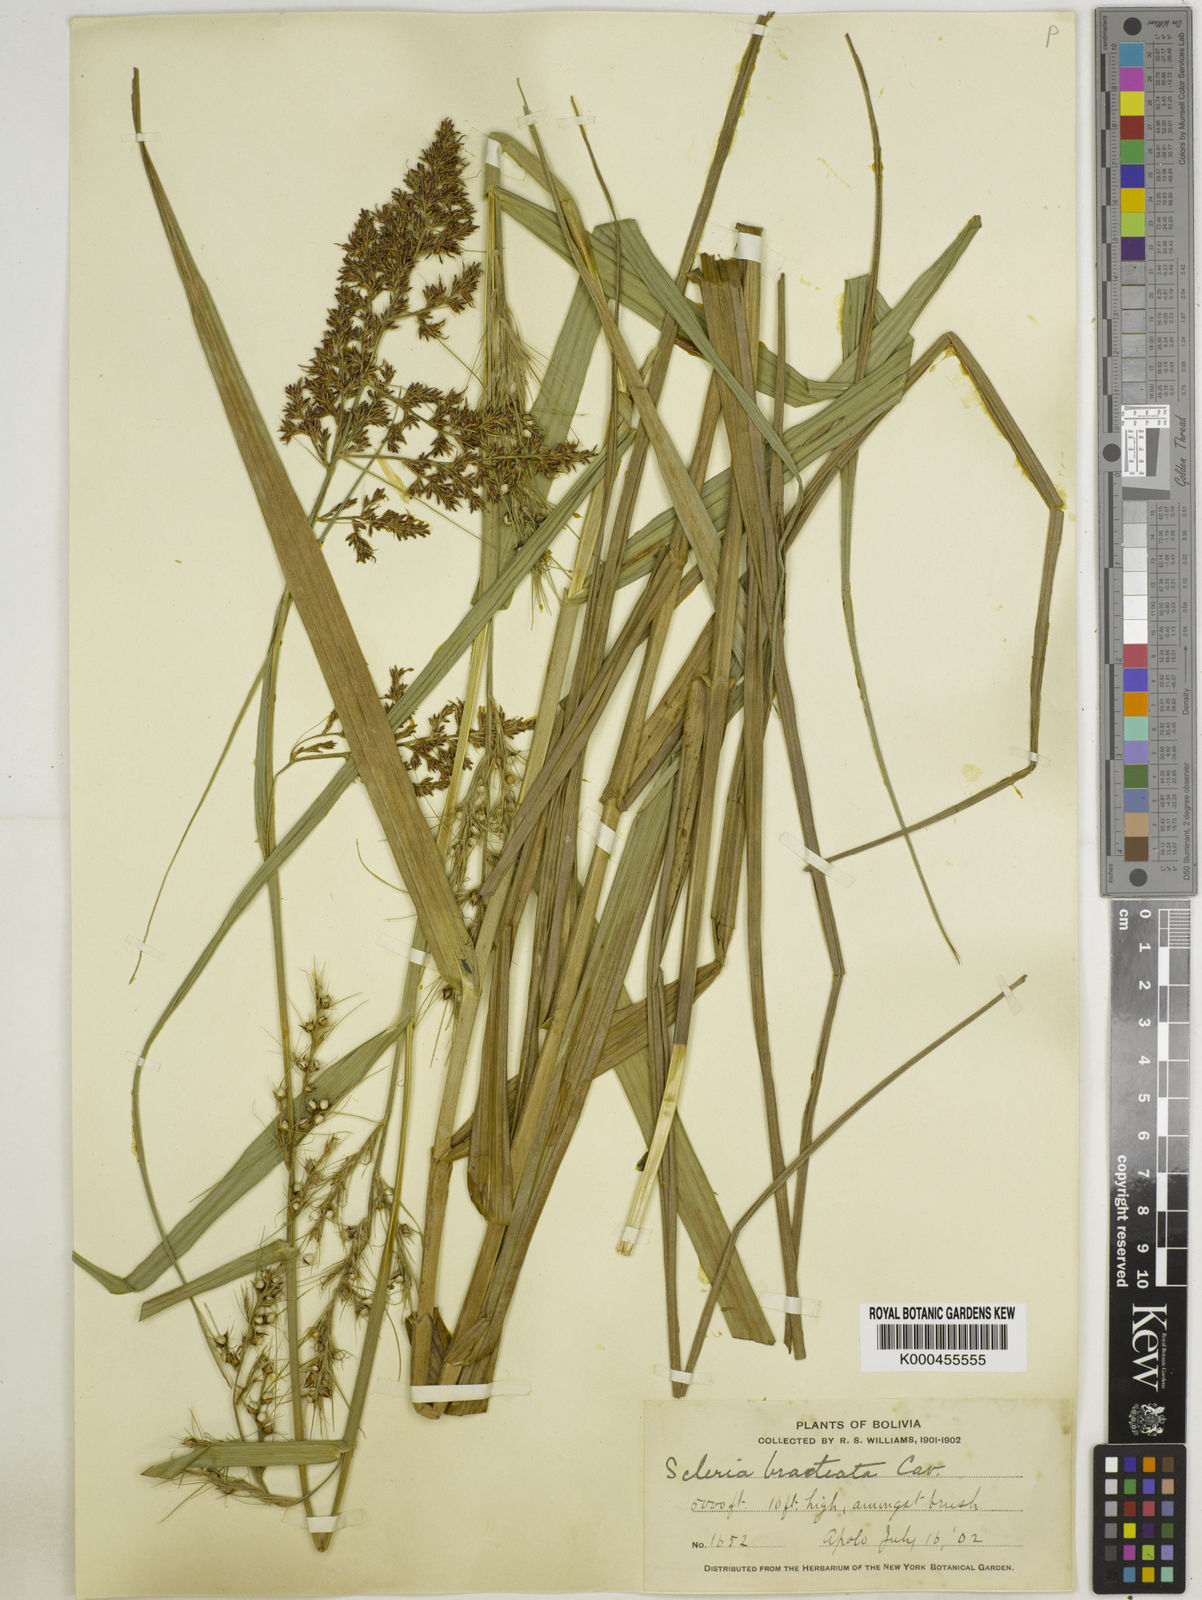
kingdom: Plantae
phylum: Tracheophyta
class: Liliopsida
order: Poales
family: Cyperaceae
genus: Scleria
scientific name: Scleria bracteata
